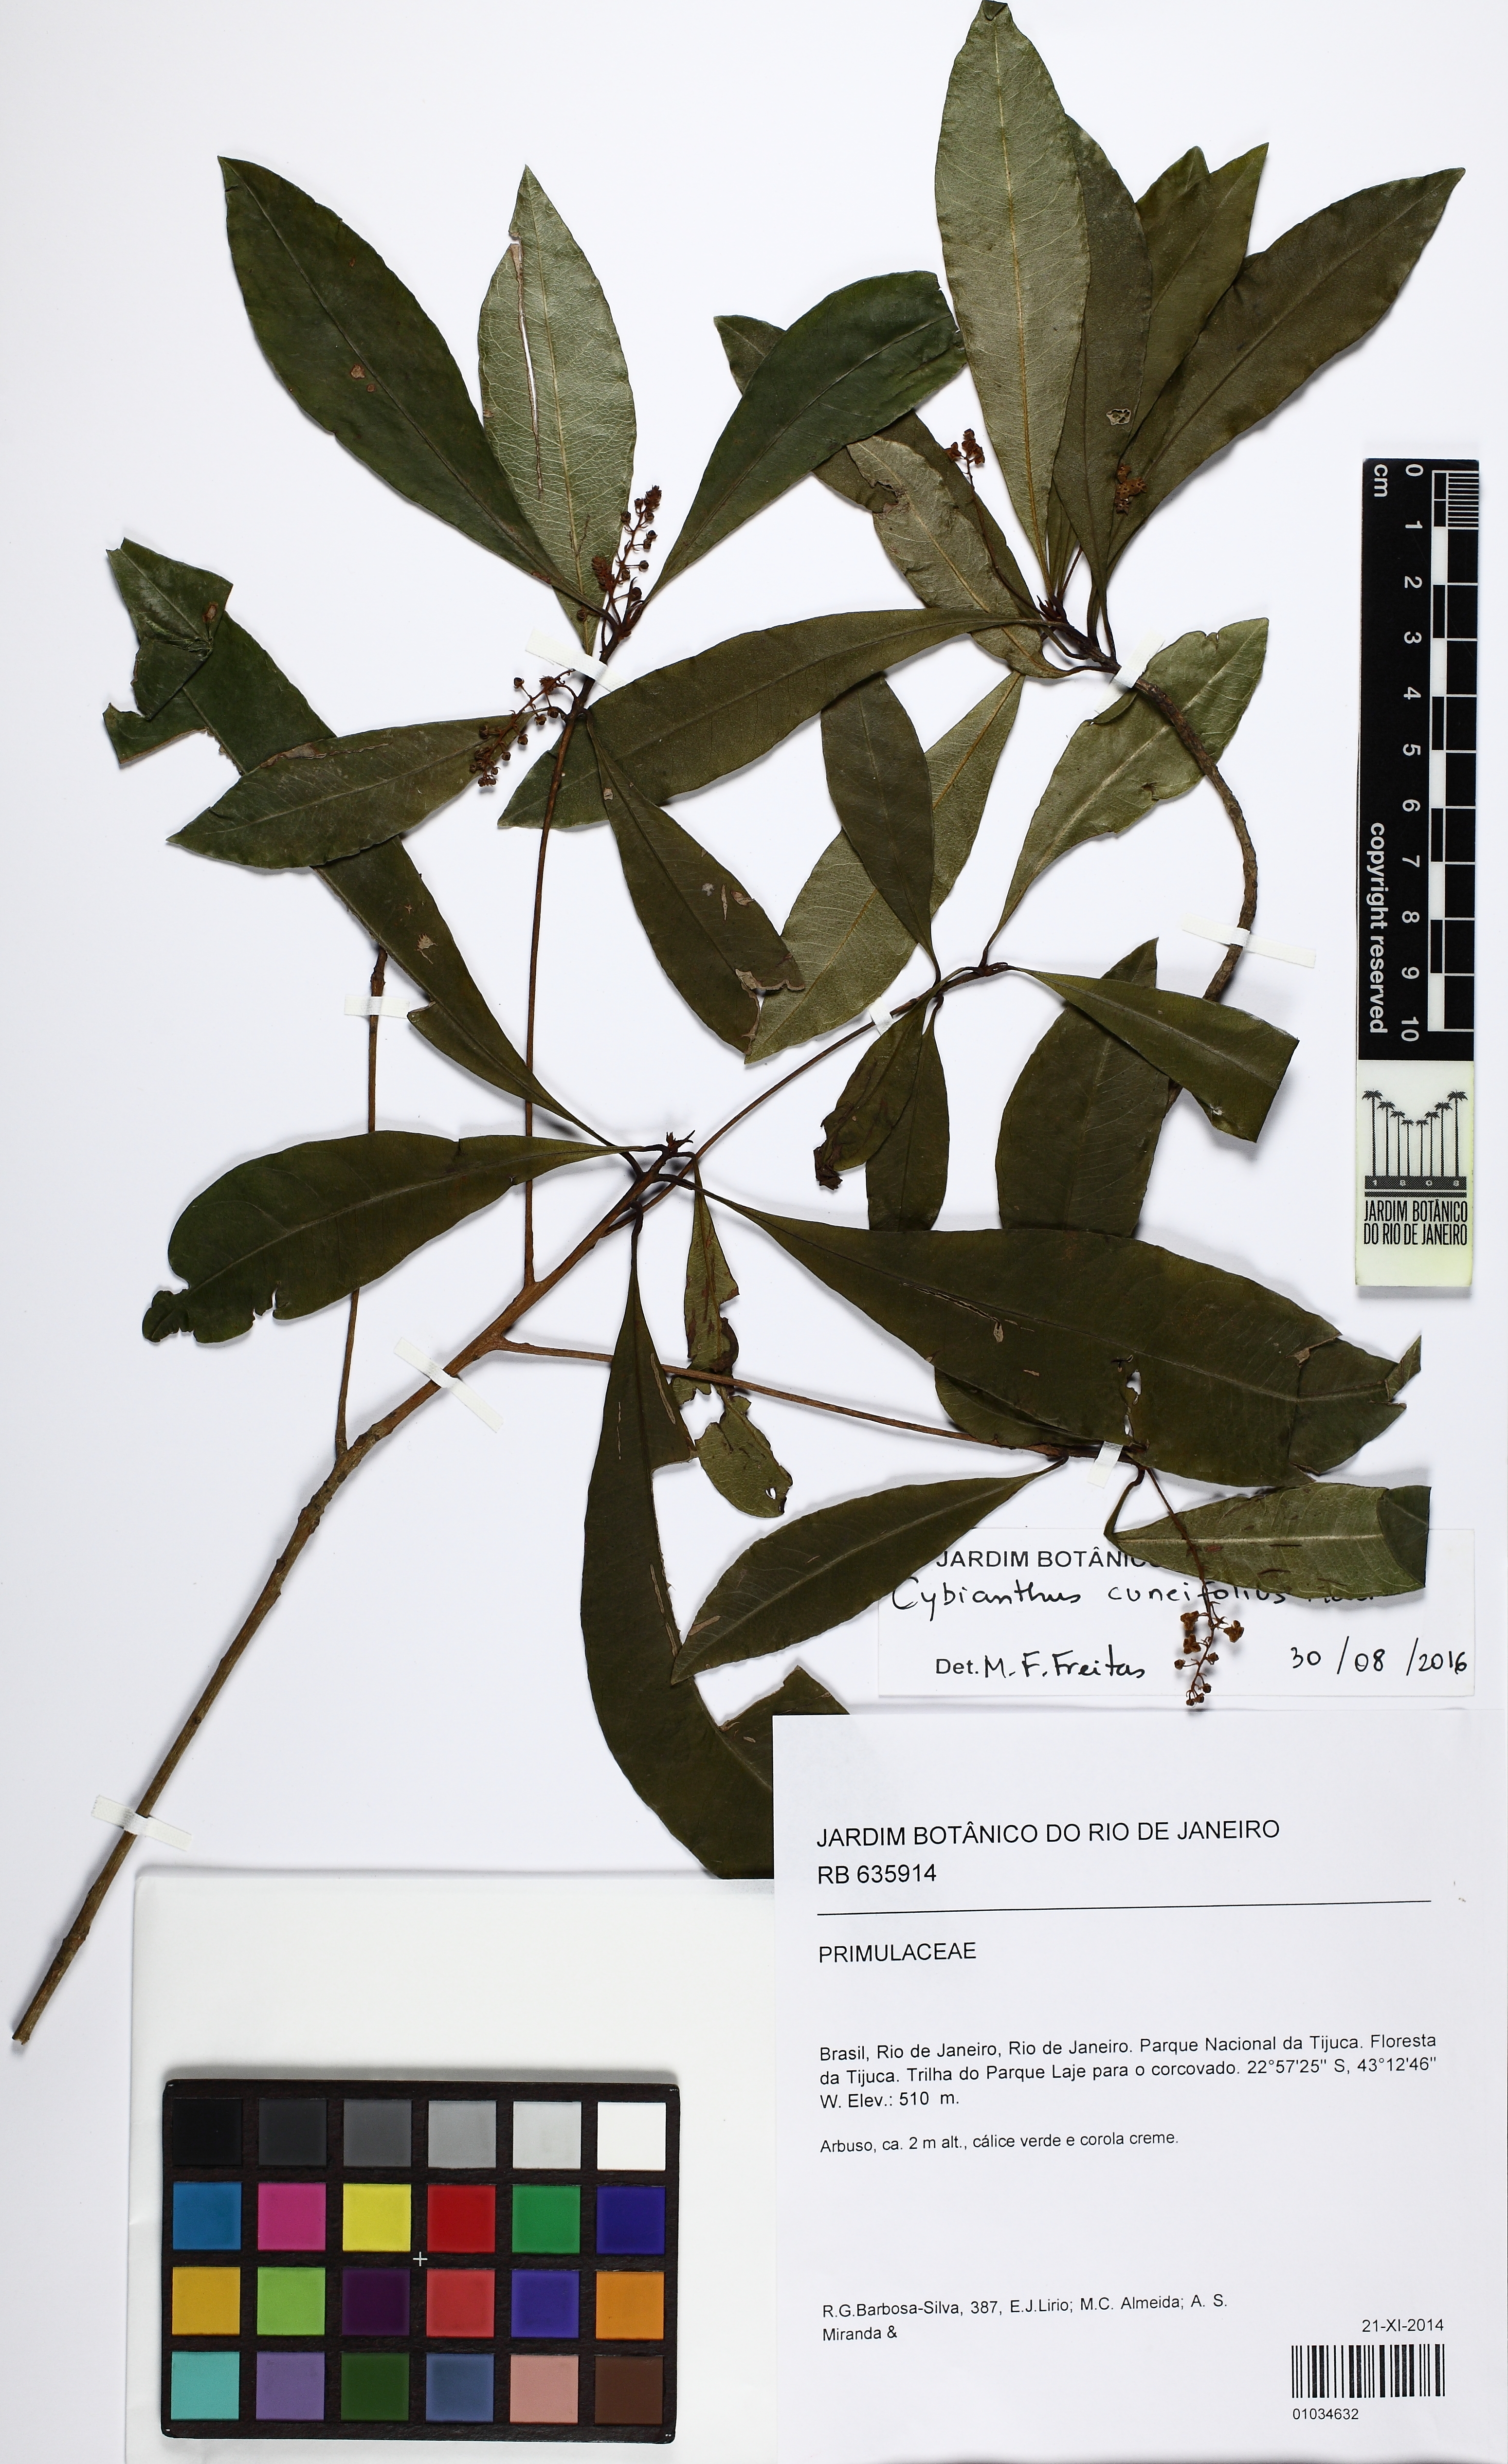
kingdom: Plantae
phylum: Tracheophyta
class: Magnoliopsida
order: Ericales
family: Primulaceae
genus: Cybianthus
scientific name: Cybianthus pastensis
